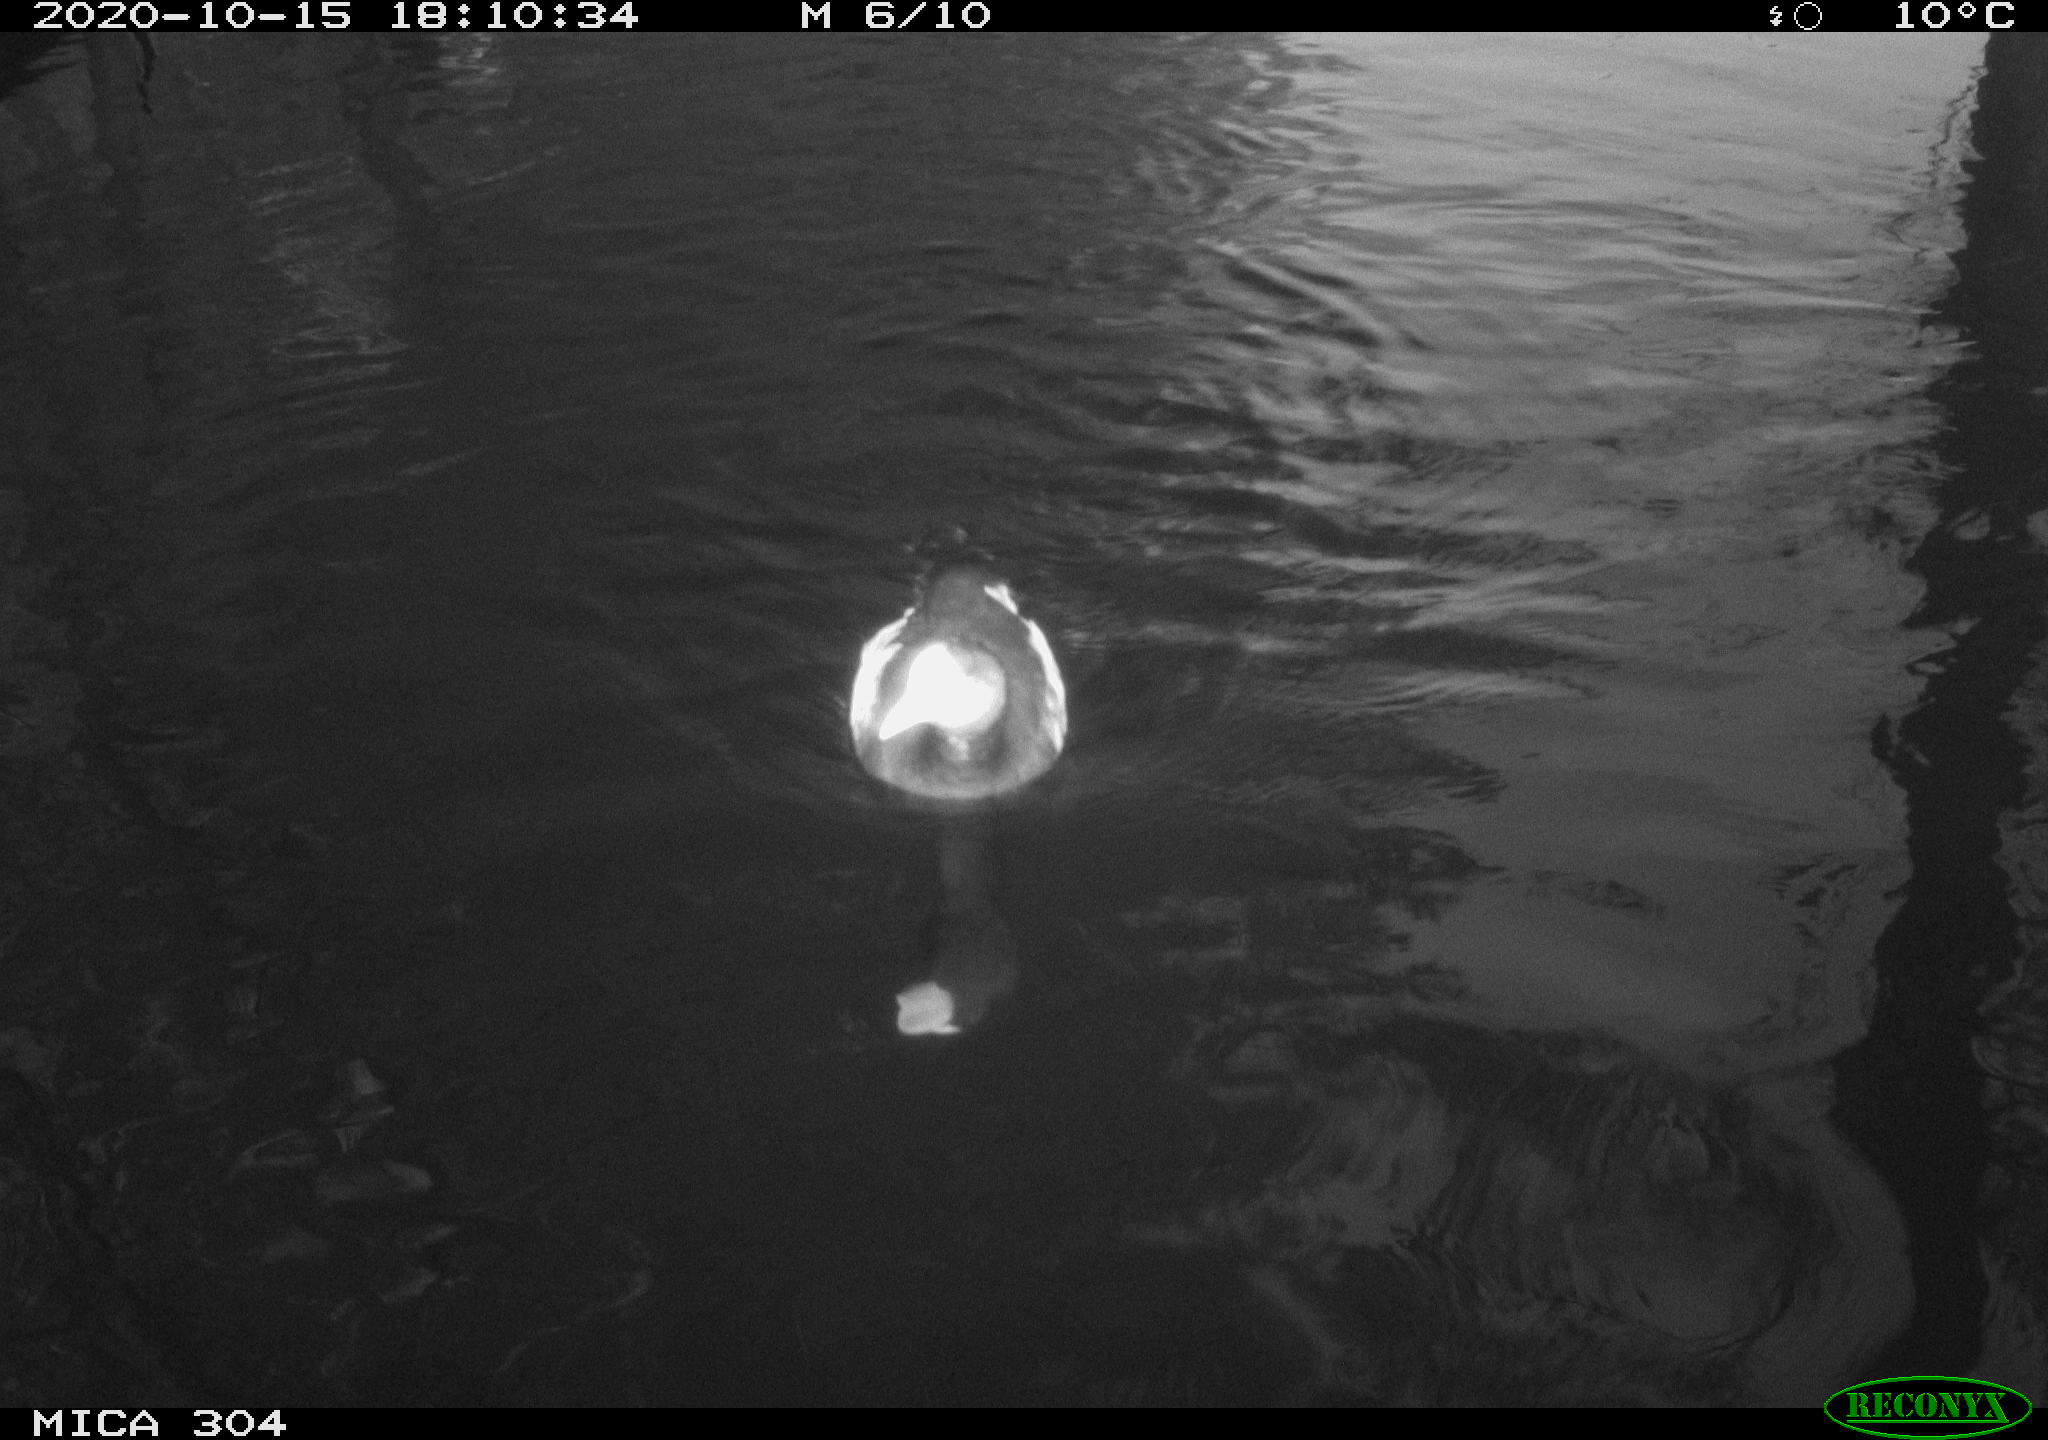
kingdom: Animalia
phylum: Chordata
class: Aves
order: Gruiformes
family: Rallidae
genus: Fulica
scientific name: Fulica atra
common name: Eurasian coot
